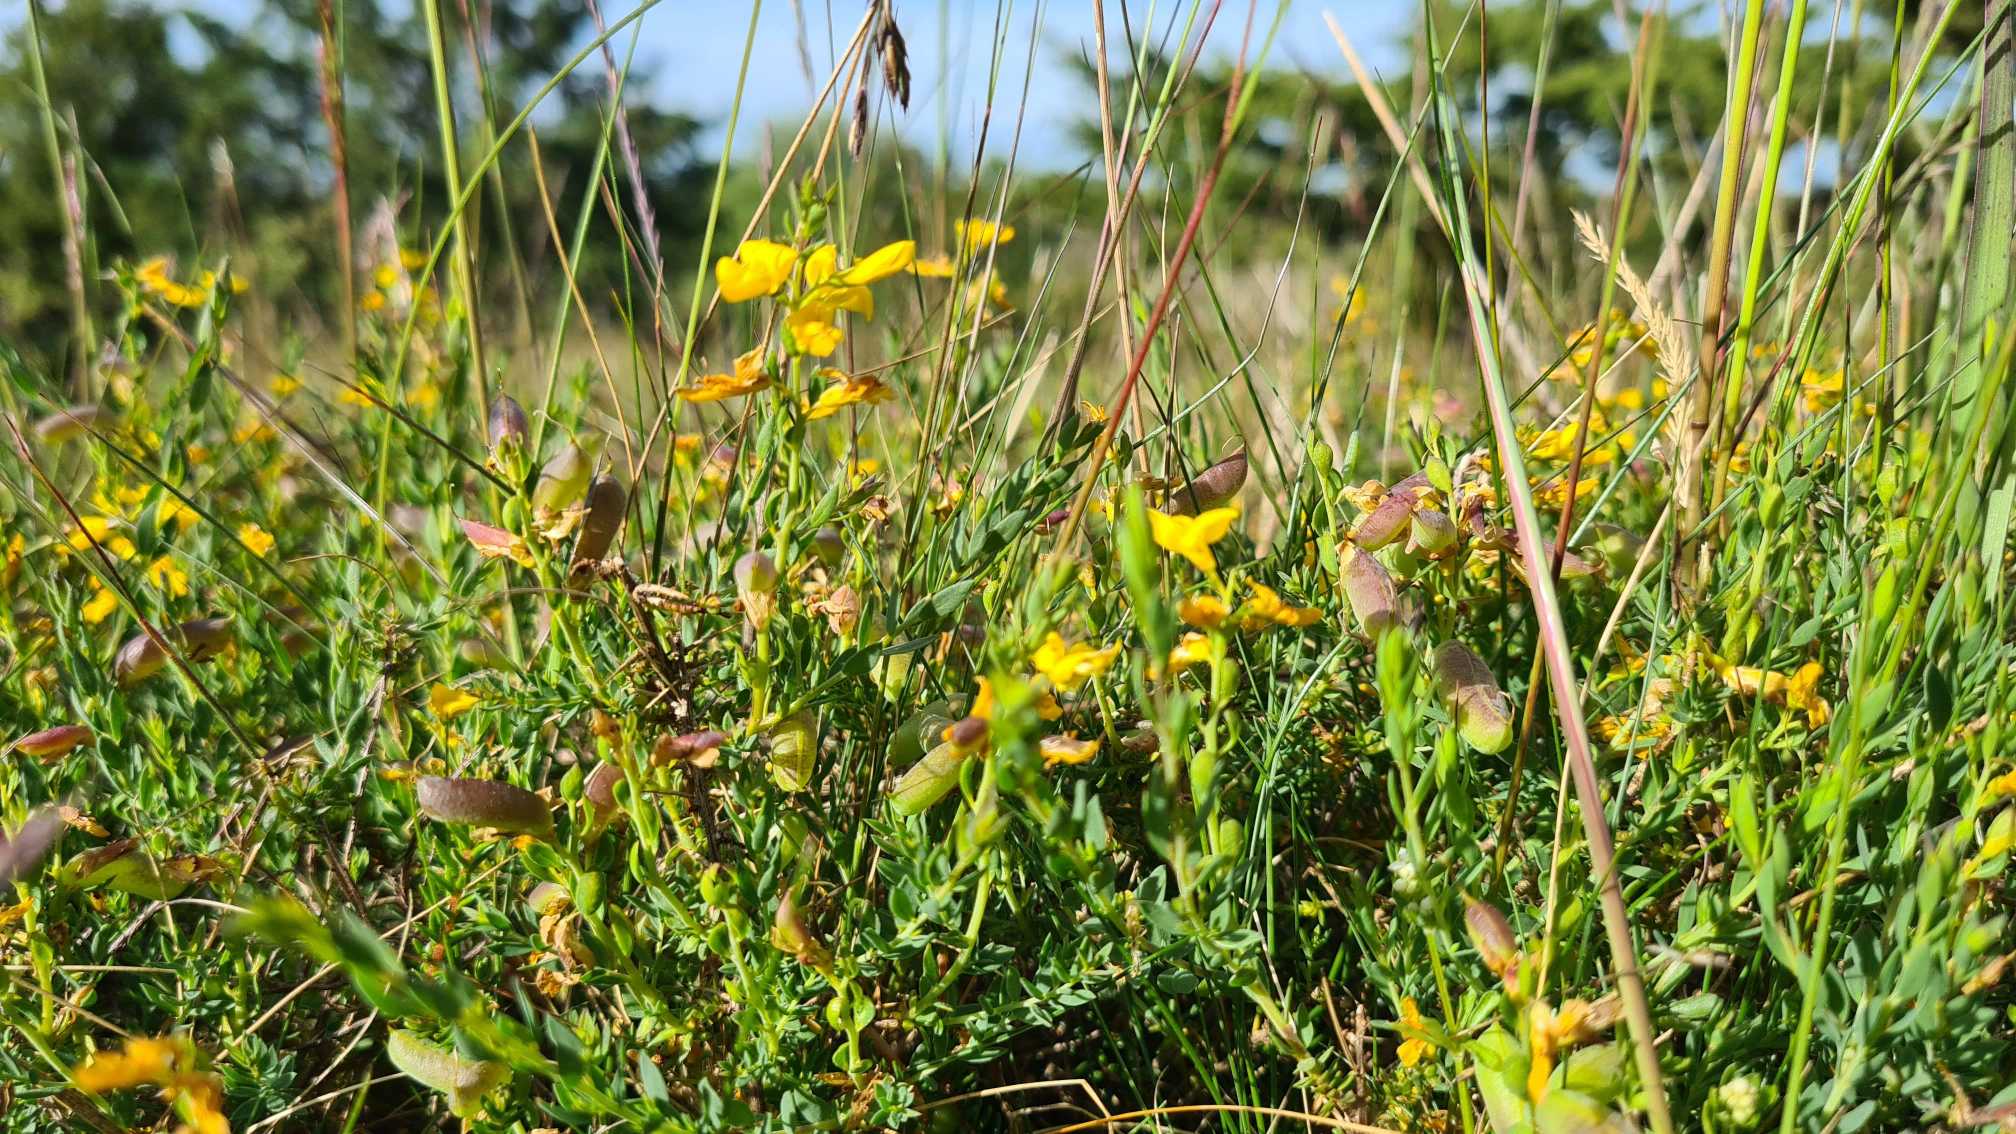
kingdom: Plantae
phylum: Tracheophyta
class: Magnoliopsida
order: Fabales
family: Fabaceae
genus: Genista
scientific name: Genista anglica
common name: Engelsk visse
